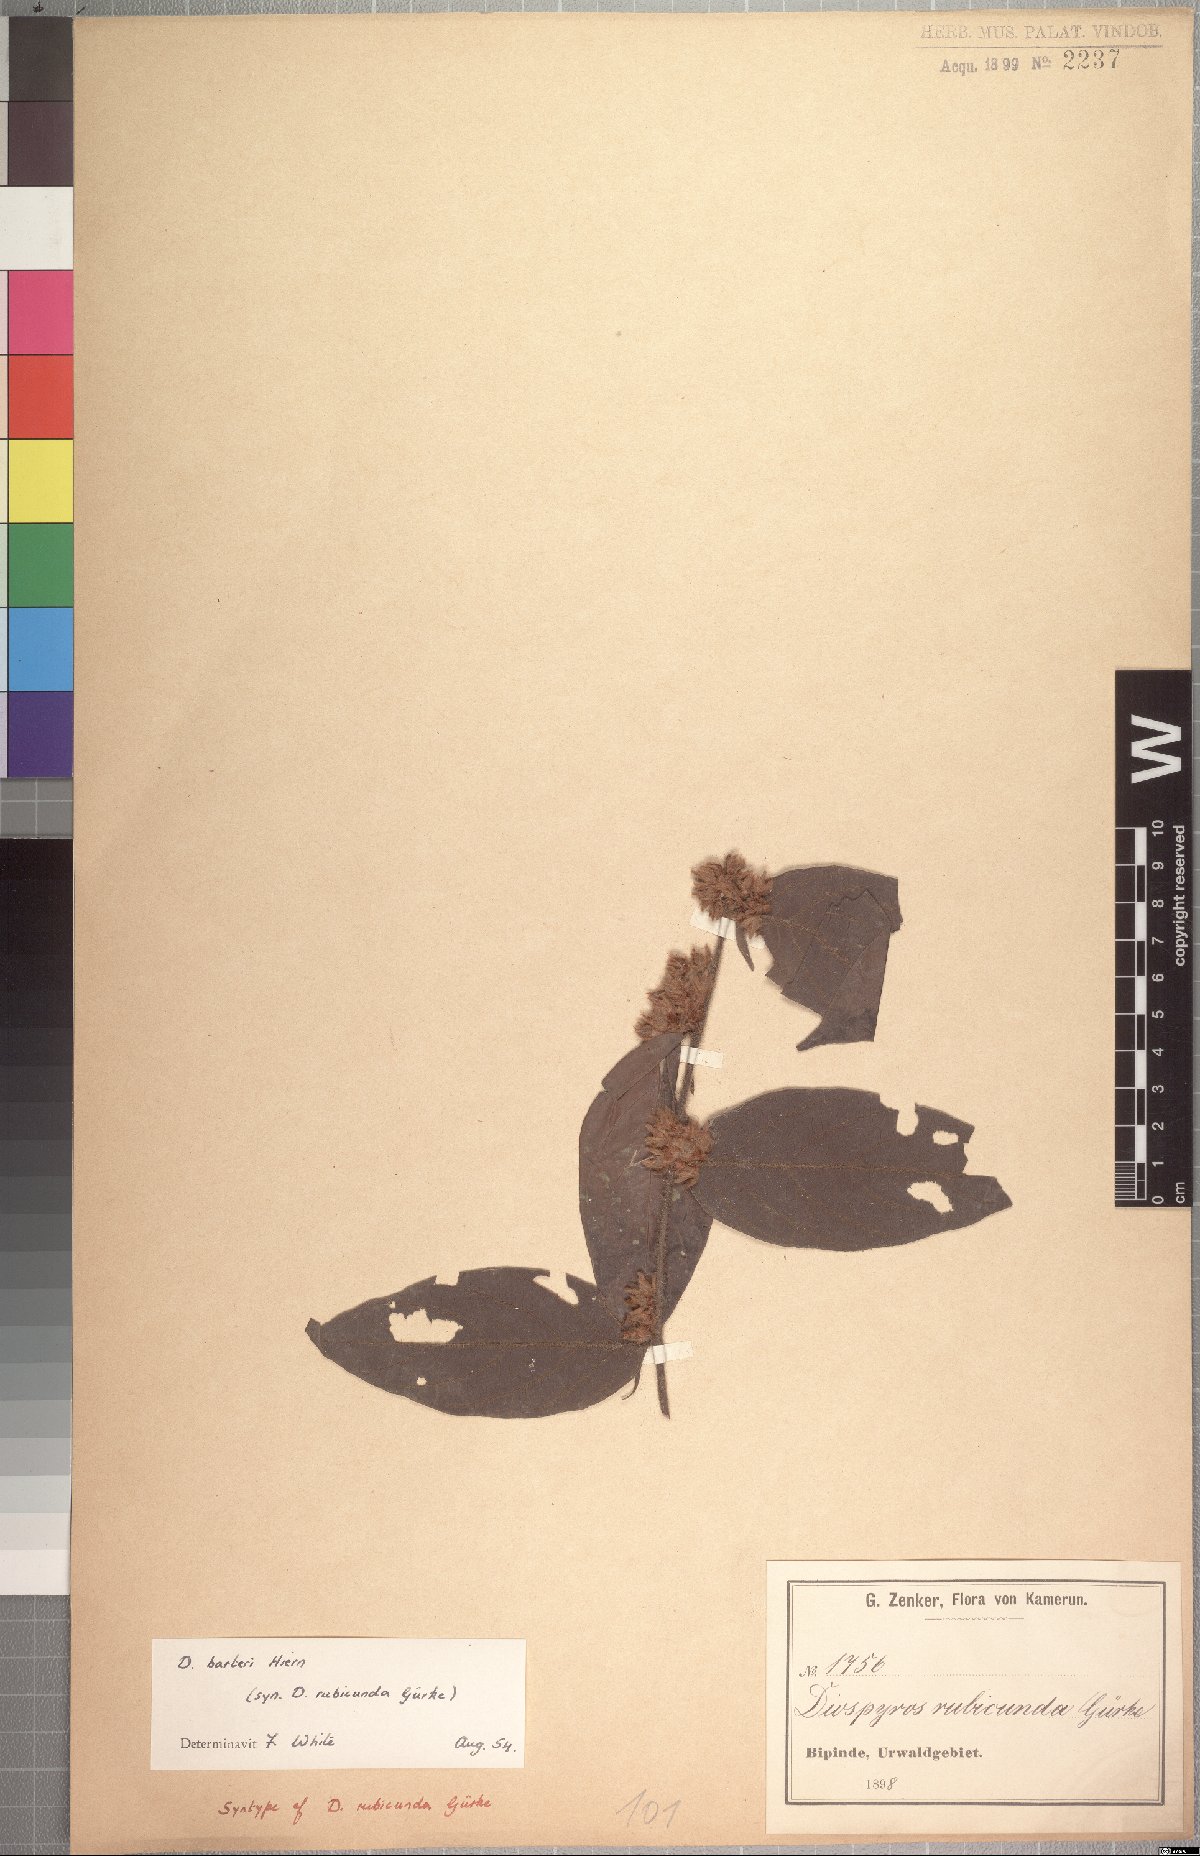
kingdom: Plantae
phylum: Tracheophyta
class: Magnoliopsida
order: Ericales
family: Ebenaceae
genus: Diospyros
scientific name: Diospyros rubicunda
